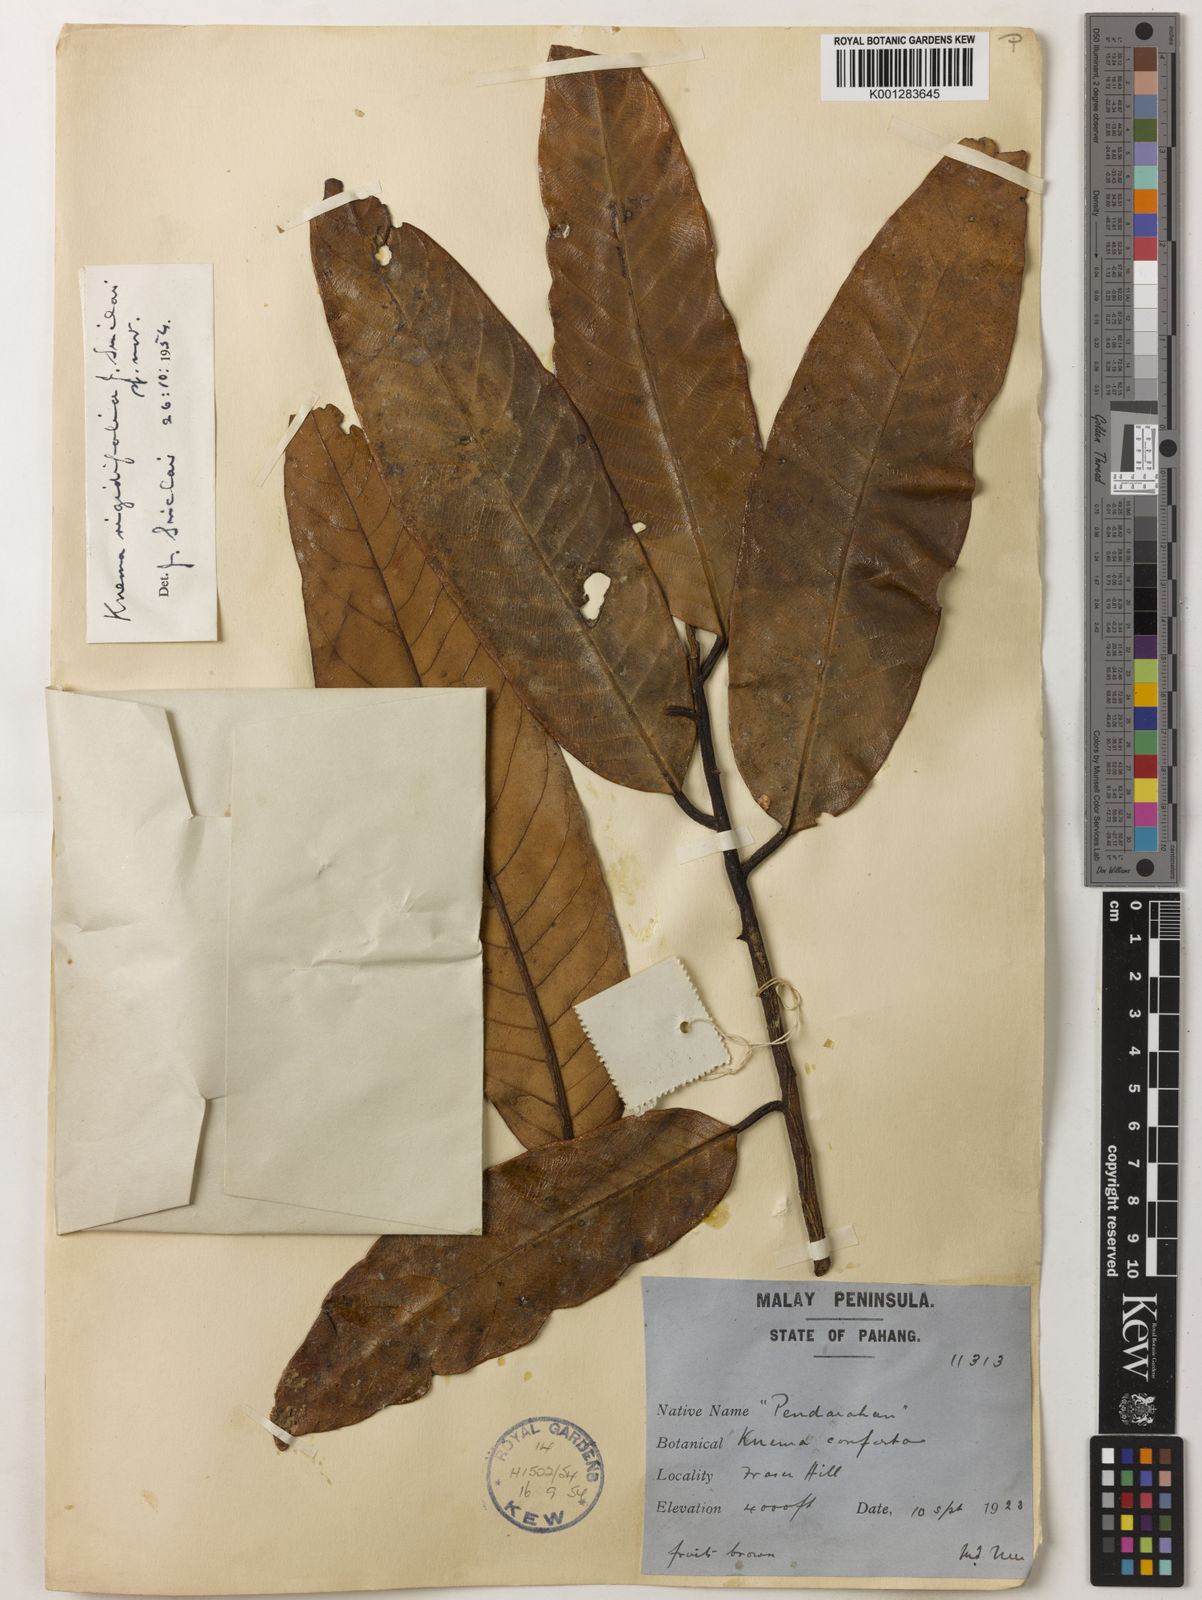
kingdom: Plantae
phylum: Tracheophyta
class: Magnoliopsida
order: Magnoliales
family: Myristicaceae
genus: Knema
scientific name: Knema rigidifolia
